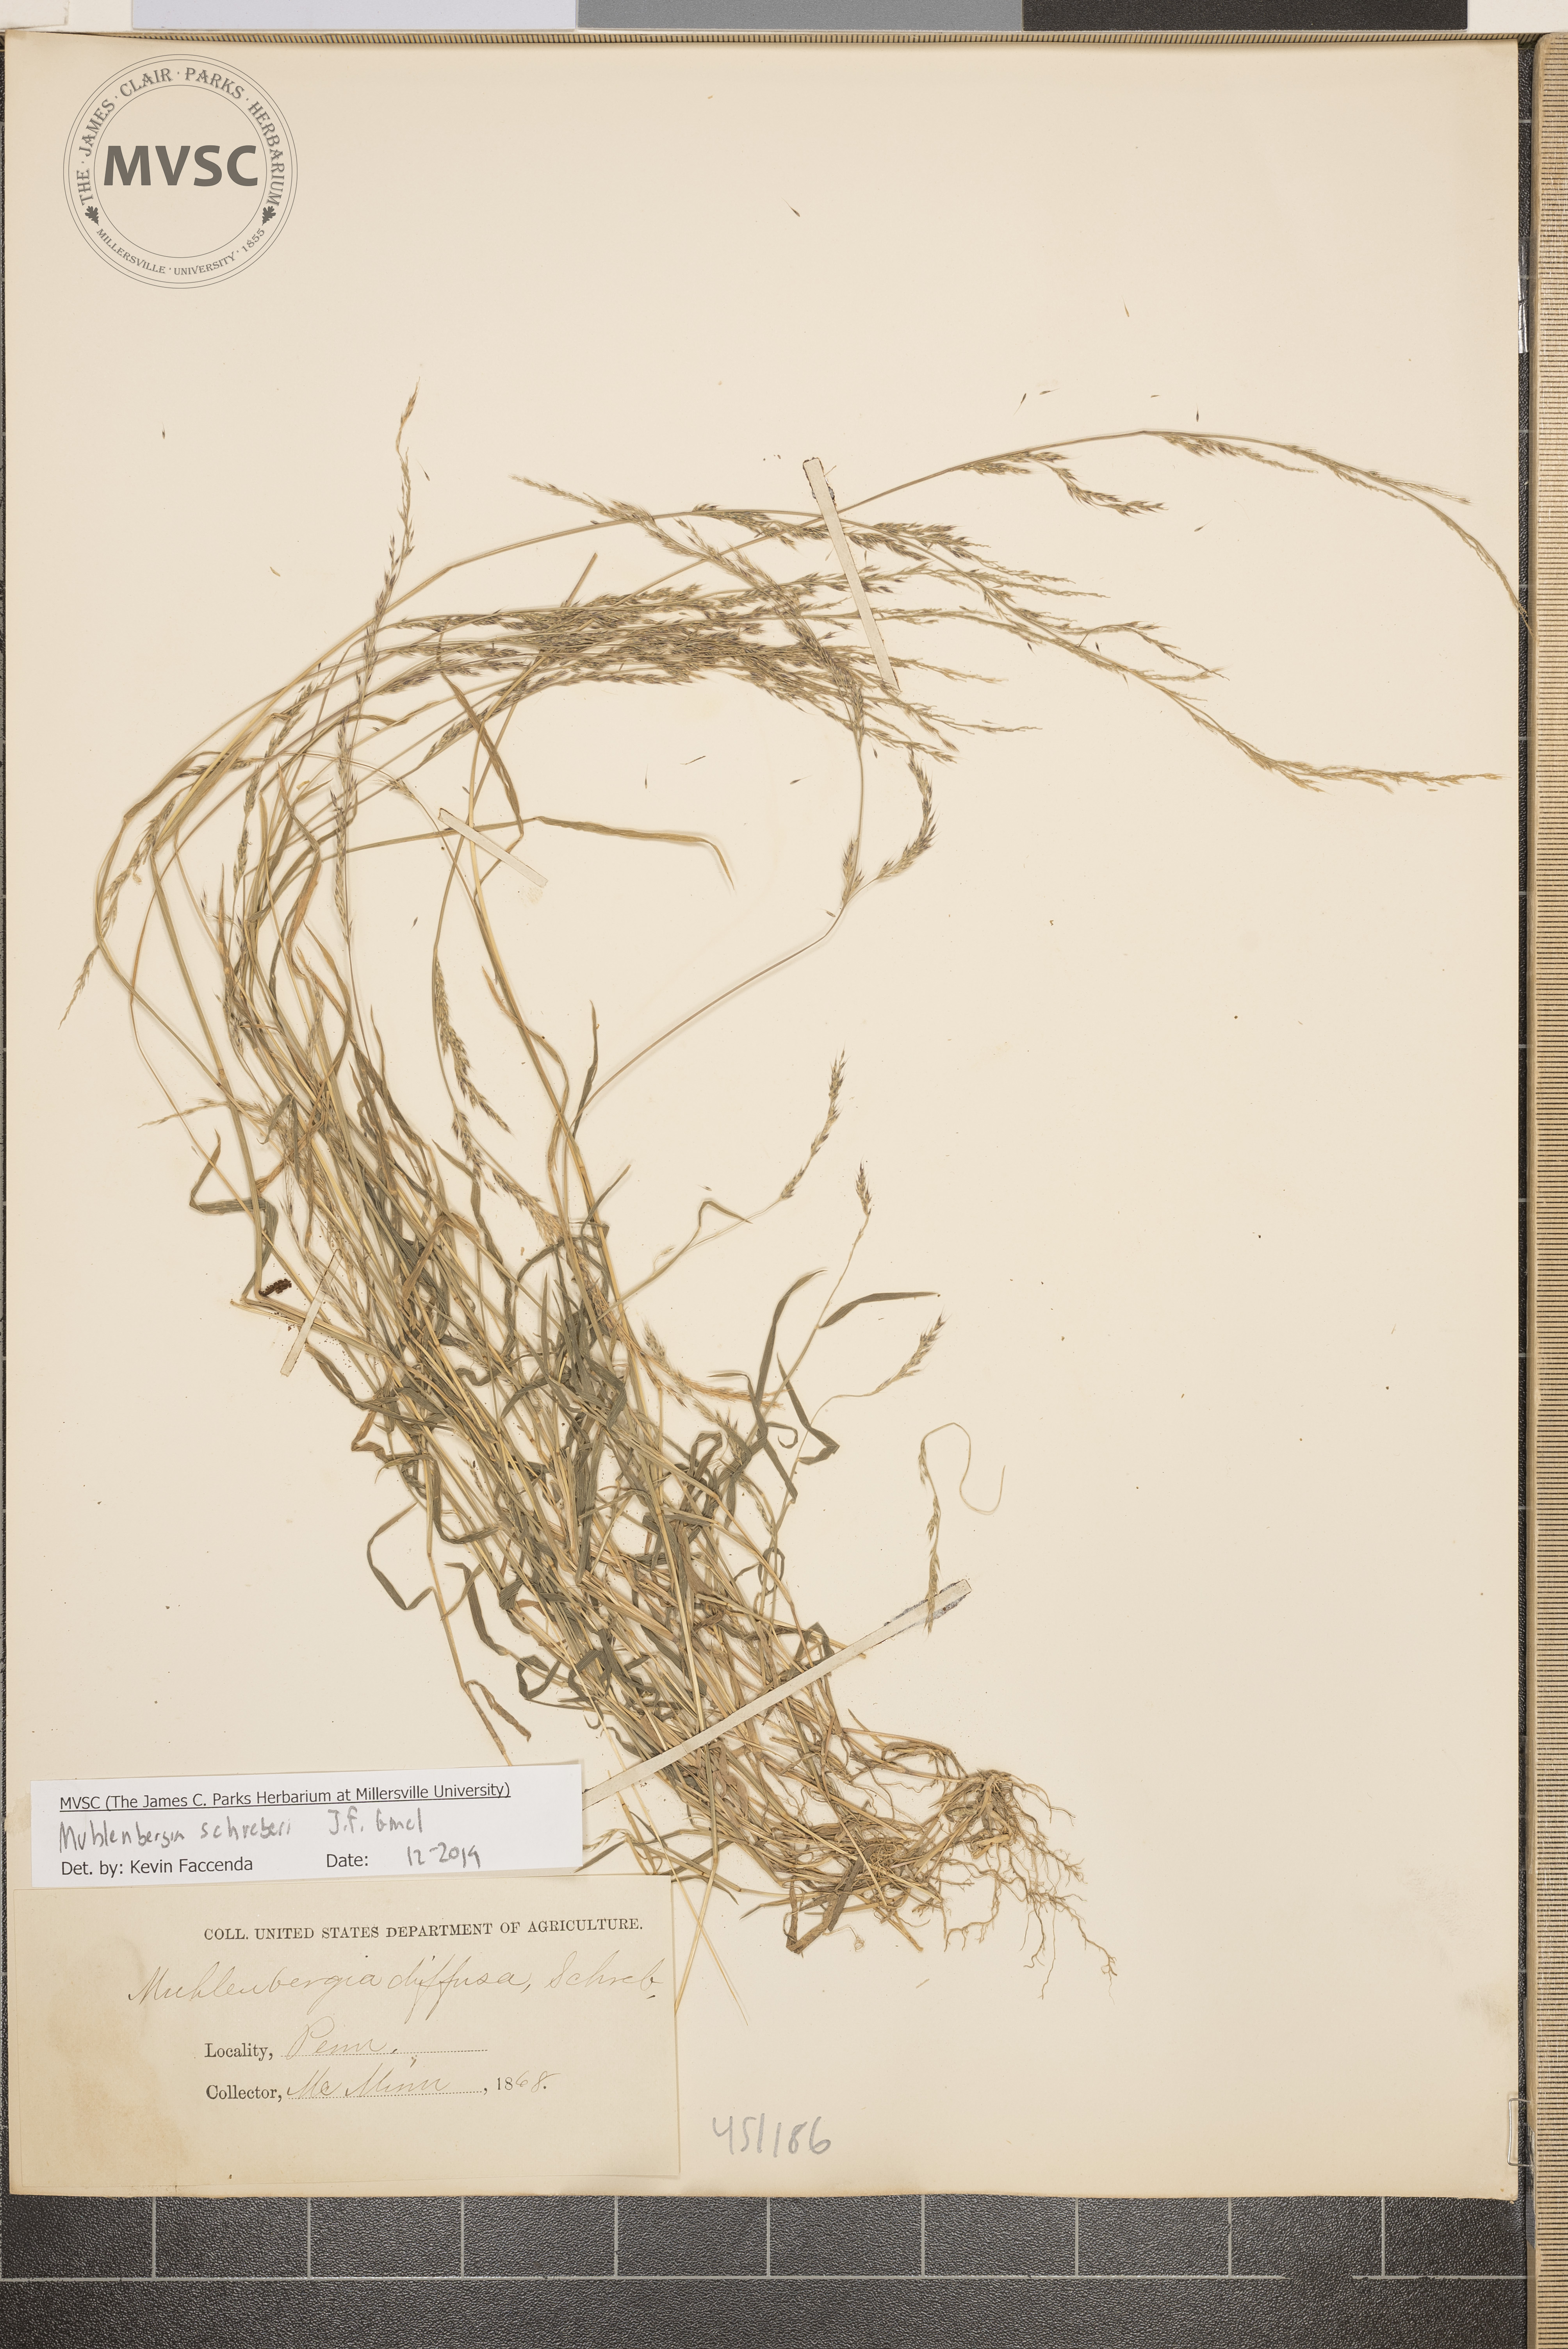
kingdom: Plantae
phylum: Tracheophyta
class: Liliopsida
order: Poales
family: Poaceae
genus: Muhlenbergia
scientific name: Muhlenbergia schreberi
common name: Nimblewill
